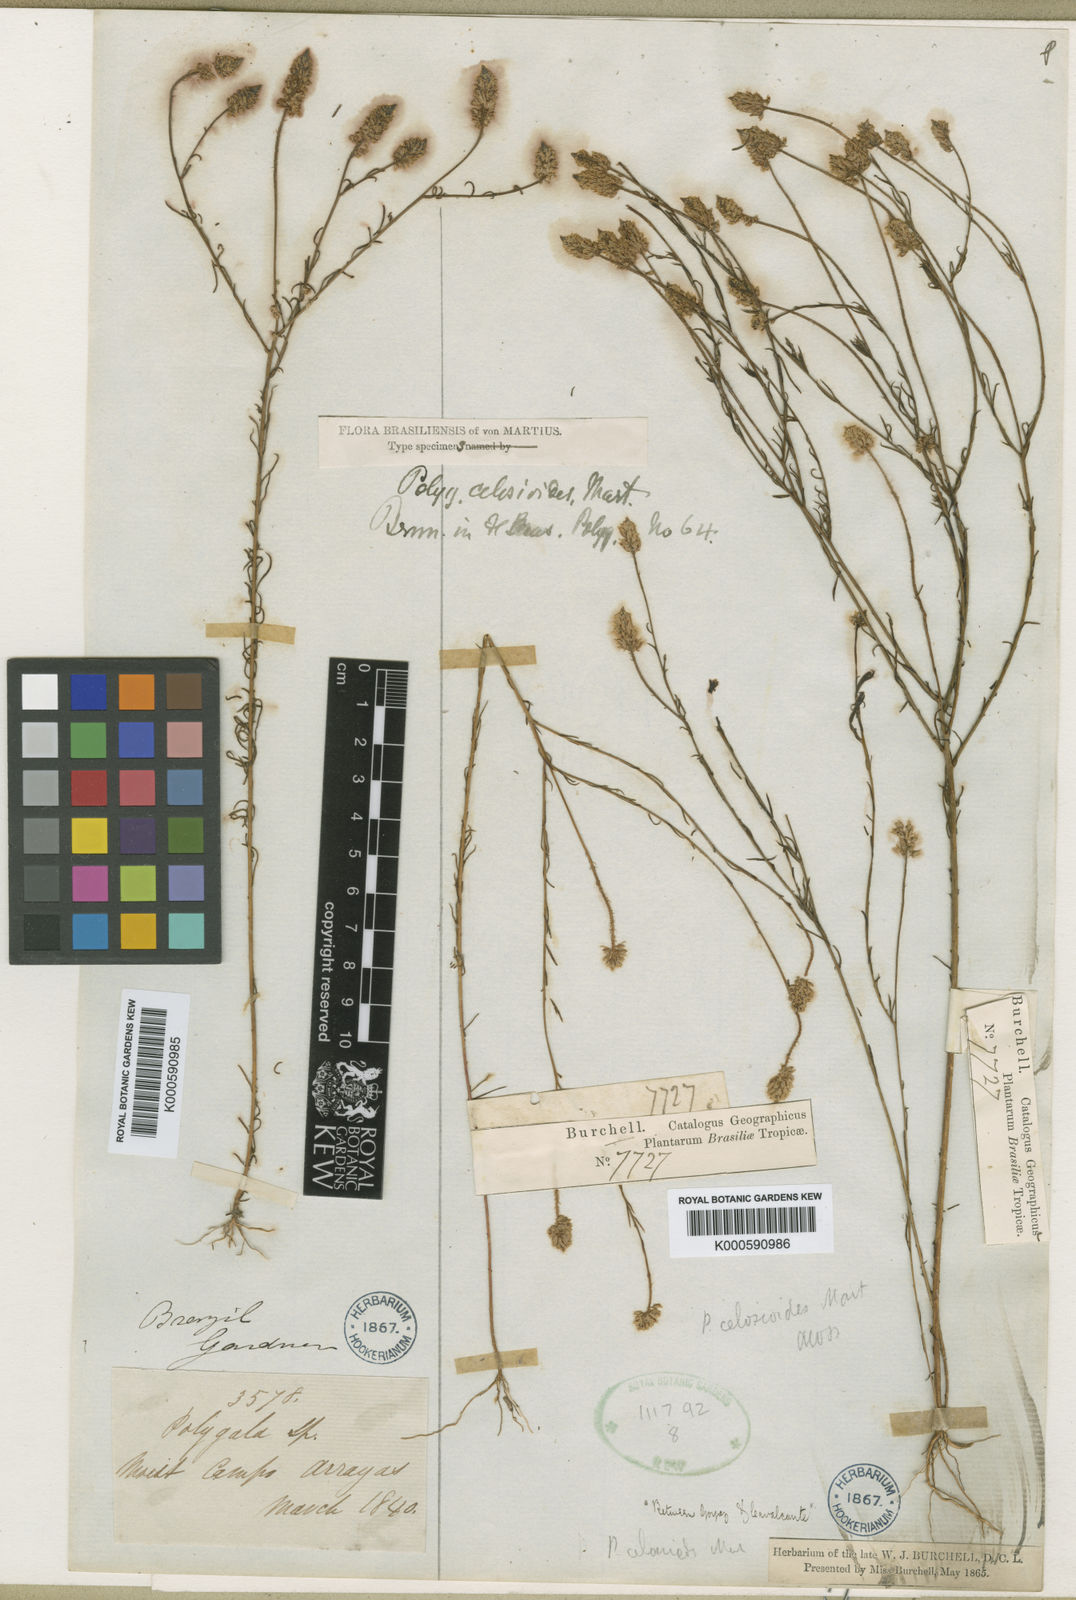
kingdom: Plantae
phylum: Tracheophyta
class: Magnoliopsida
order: Fabales
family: Polygalaceae
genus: Polygala
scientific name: Polygala celosioides
